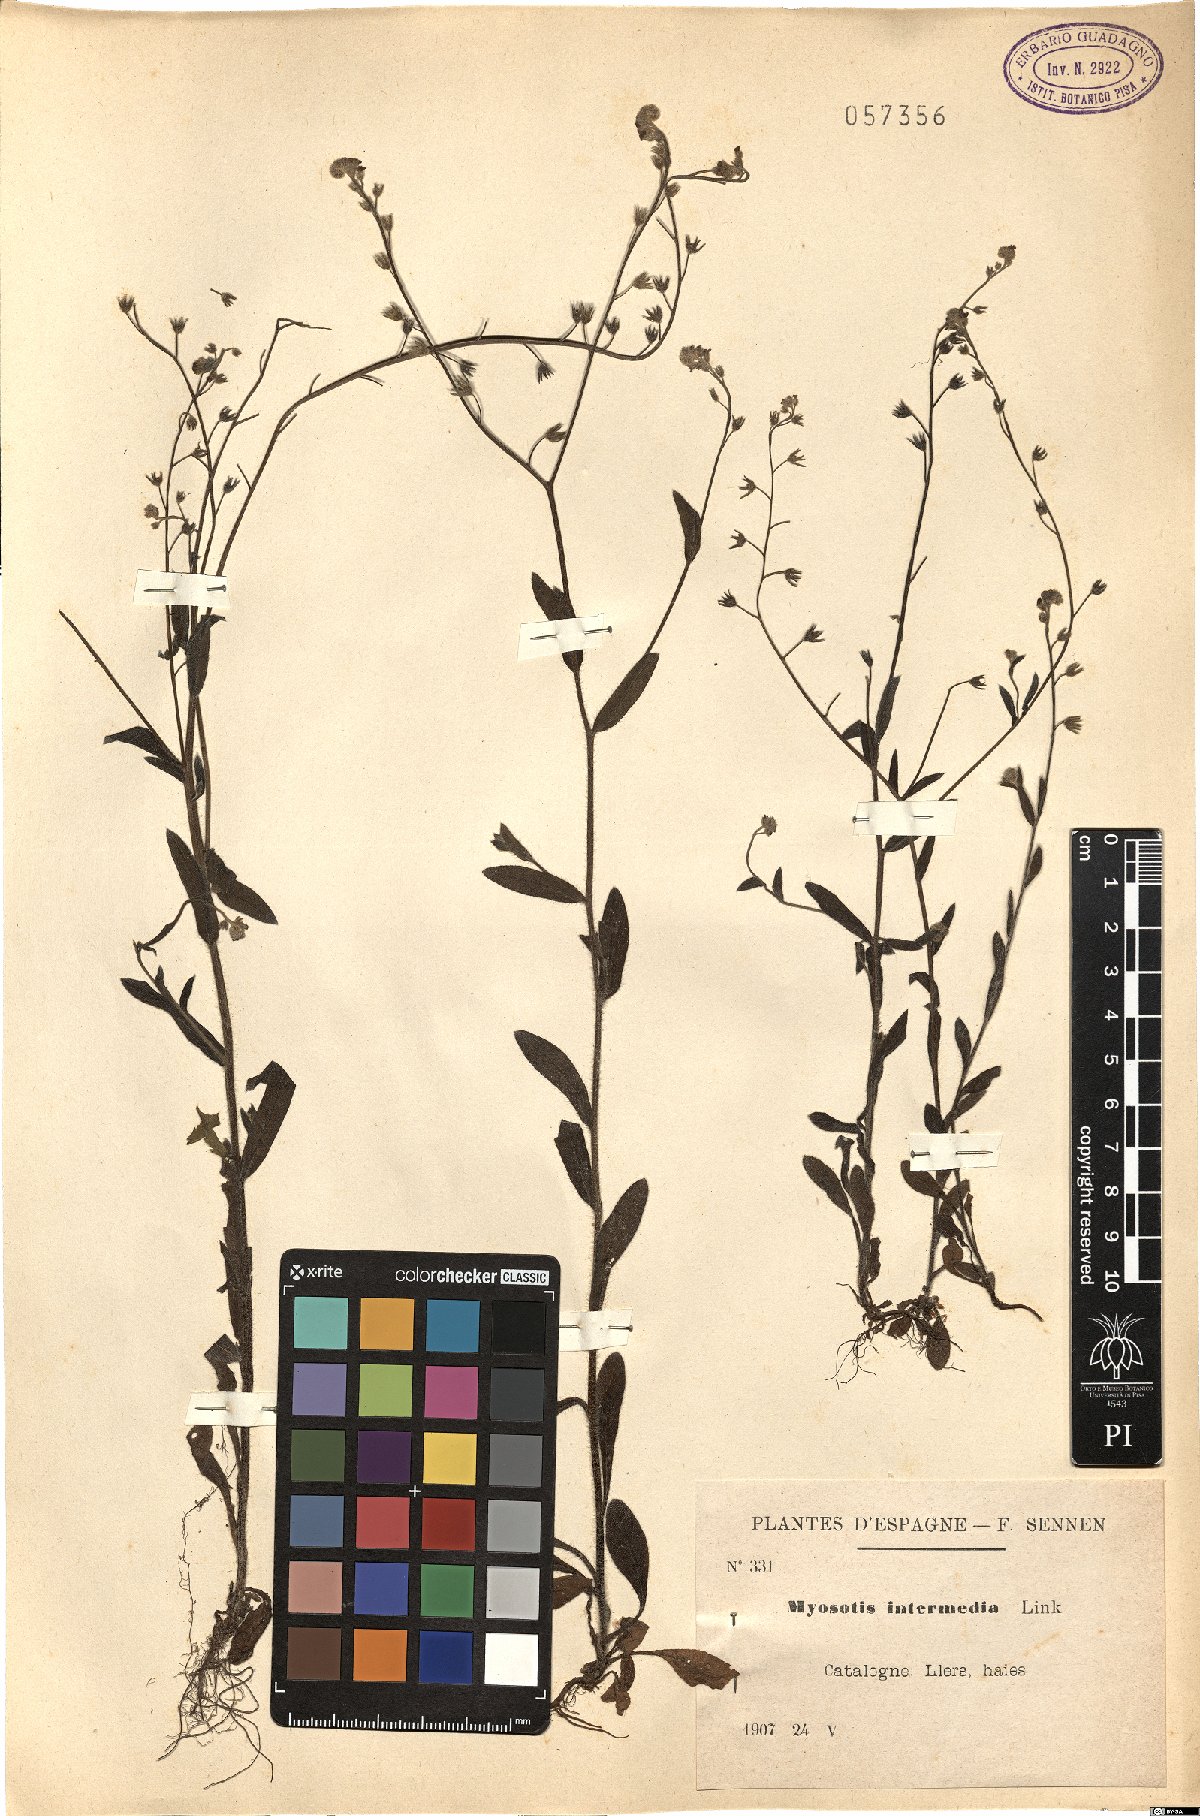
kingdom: Plantae
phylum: Tracheophyta
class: Magnoliopsida
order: Boraginales
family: Boraginaceae
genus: Myosotis
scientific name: Myosotis arvensis
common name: Field forget-me-not
